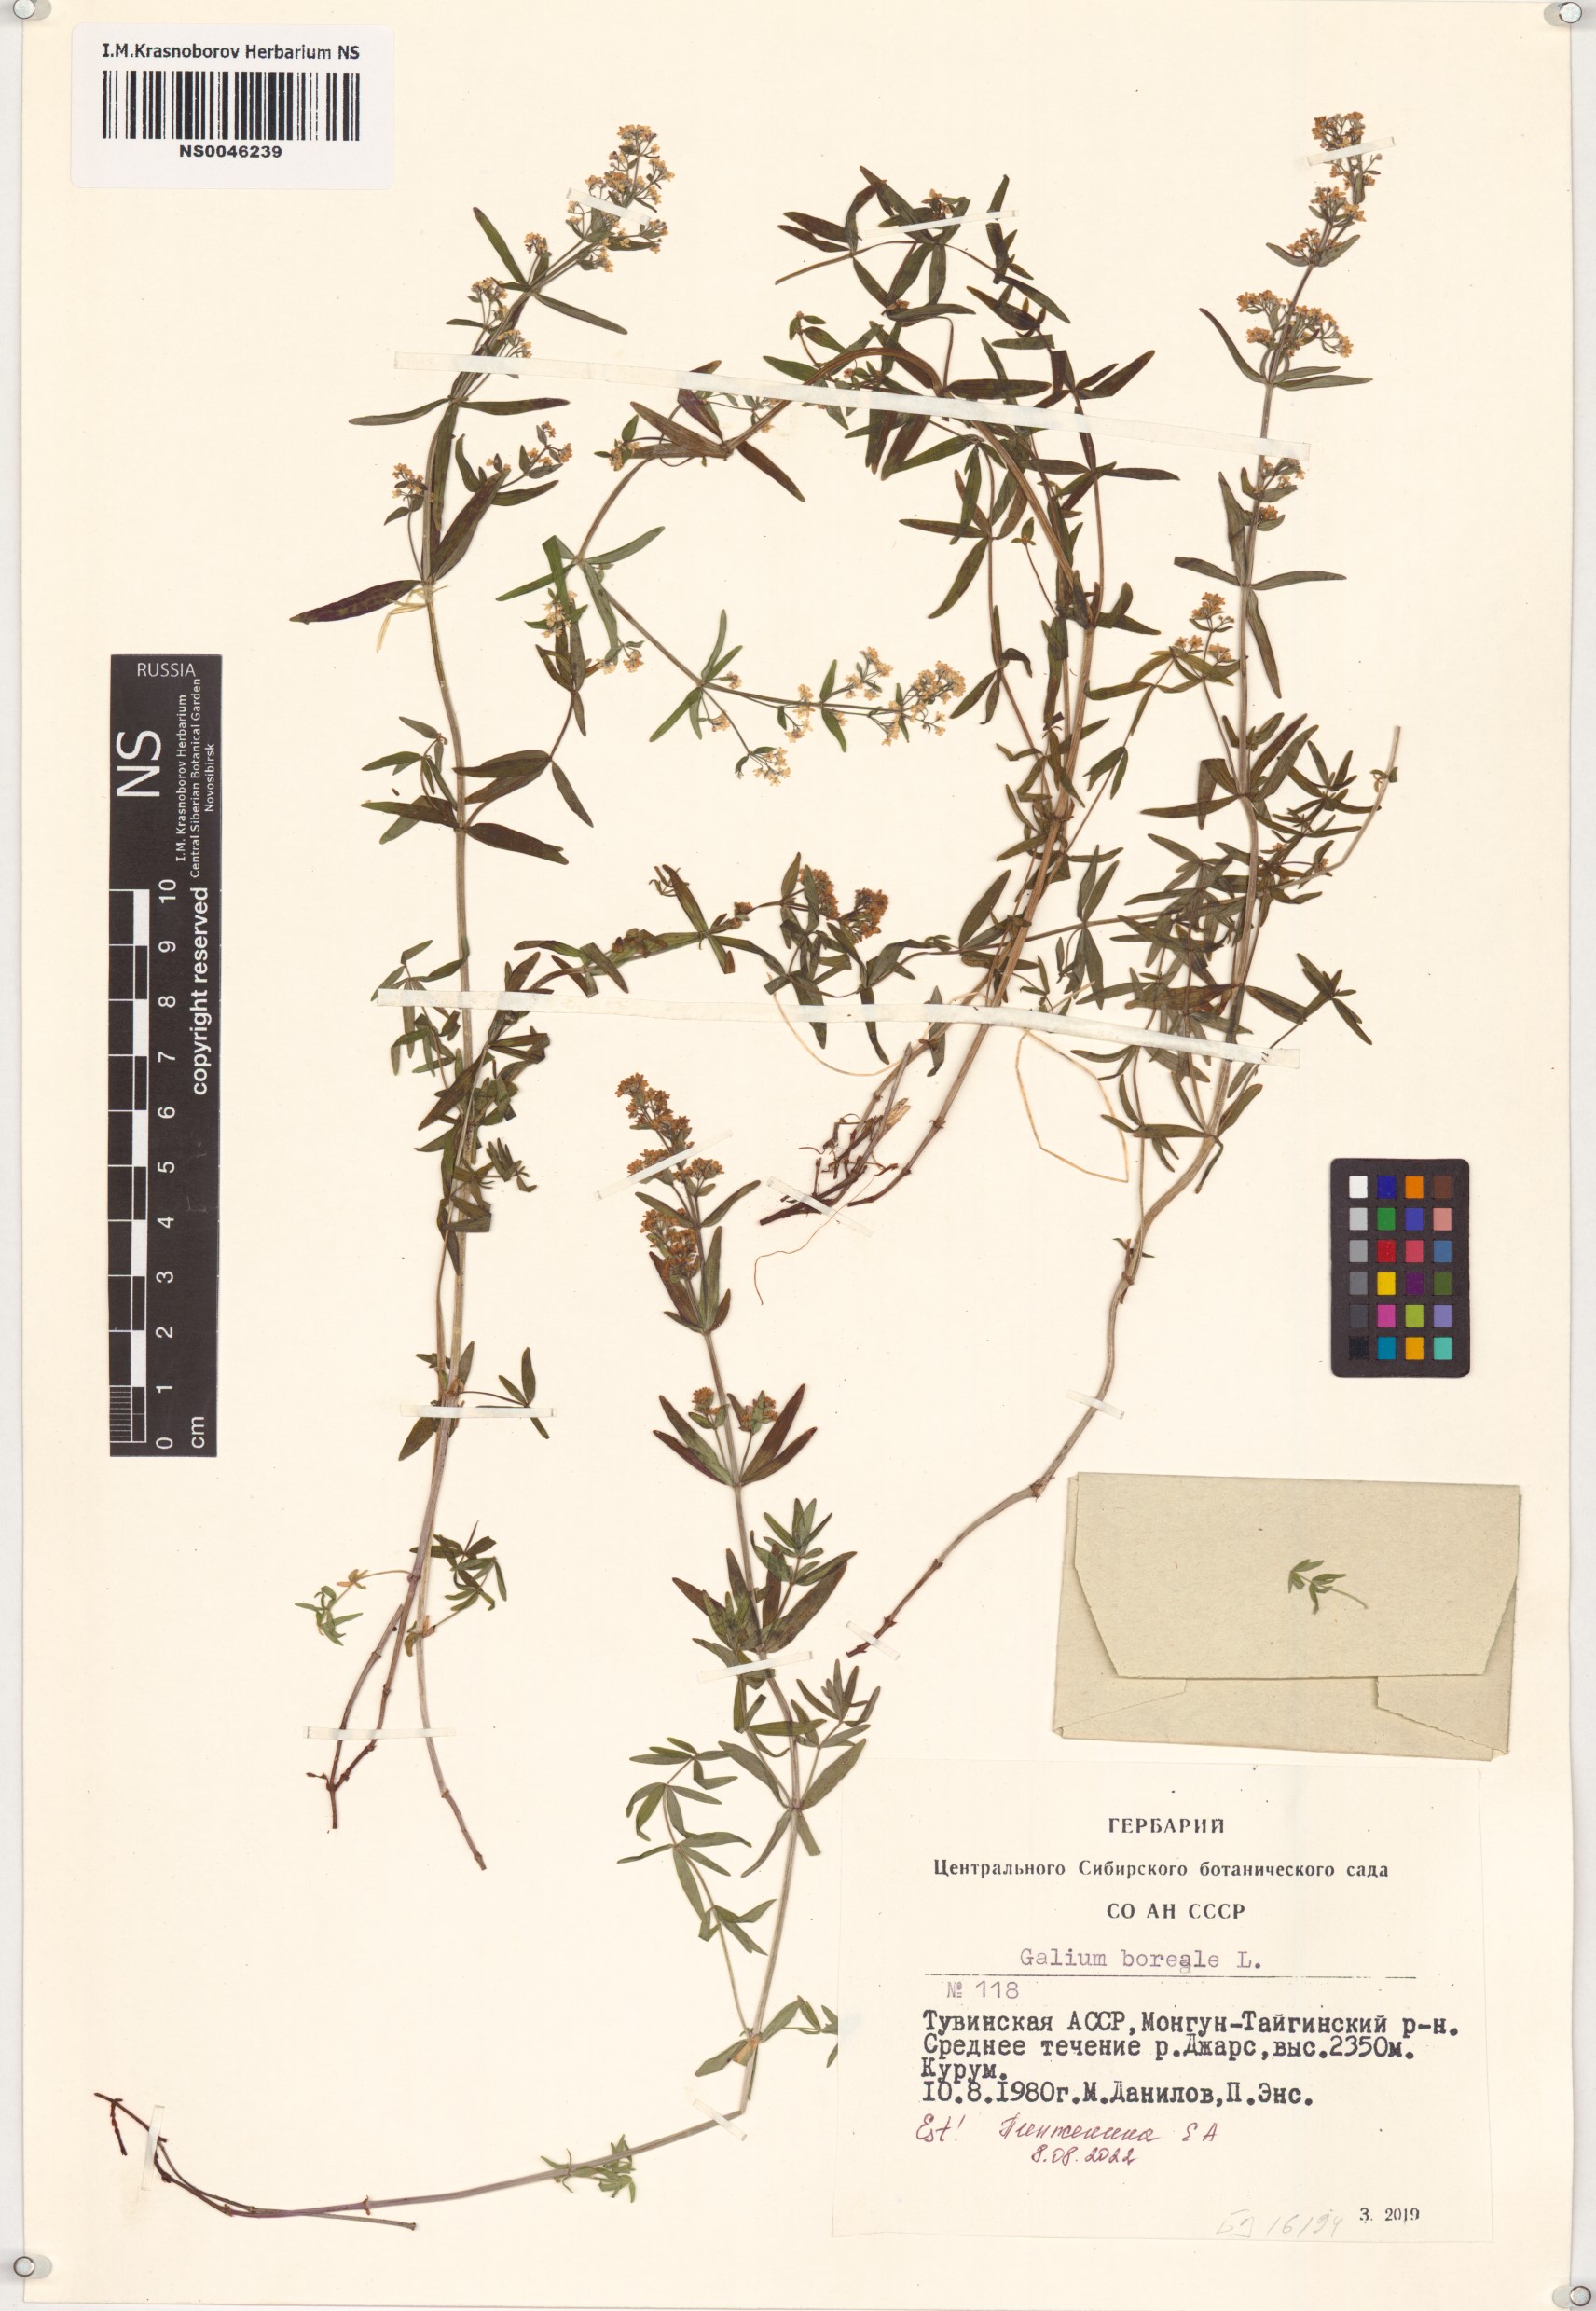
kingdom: Plantae
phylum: Tracheophyta
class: Magnoliopsida
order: Gentianales
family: Rubiaceae
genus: Galium
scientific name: Galium boreale
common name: Northern bedstraw
